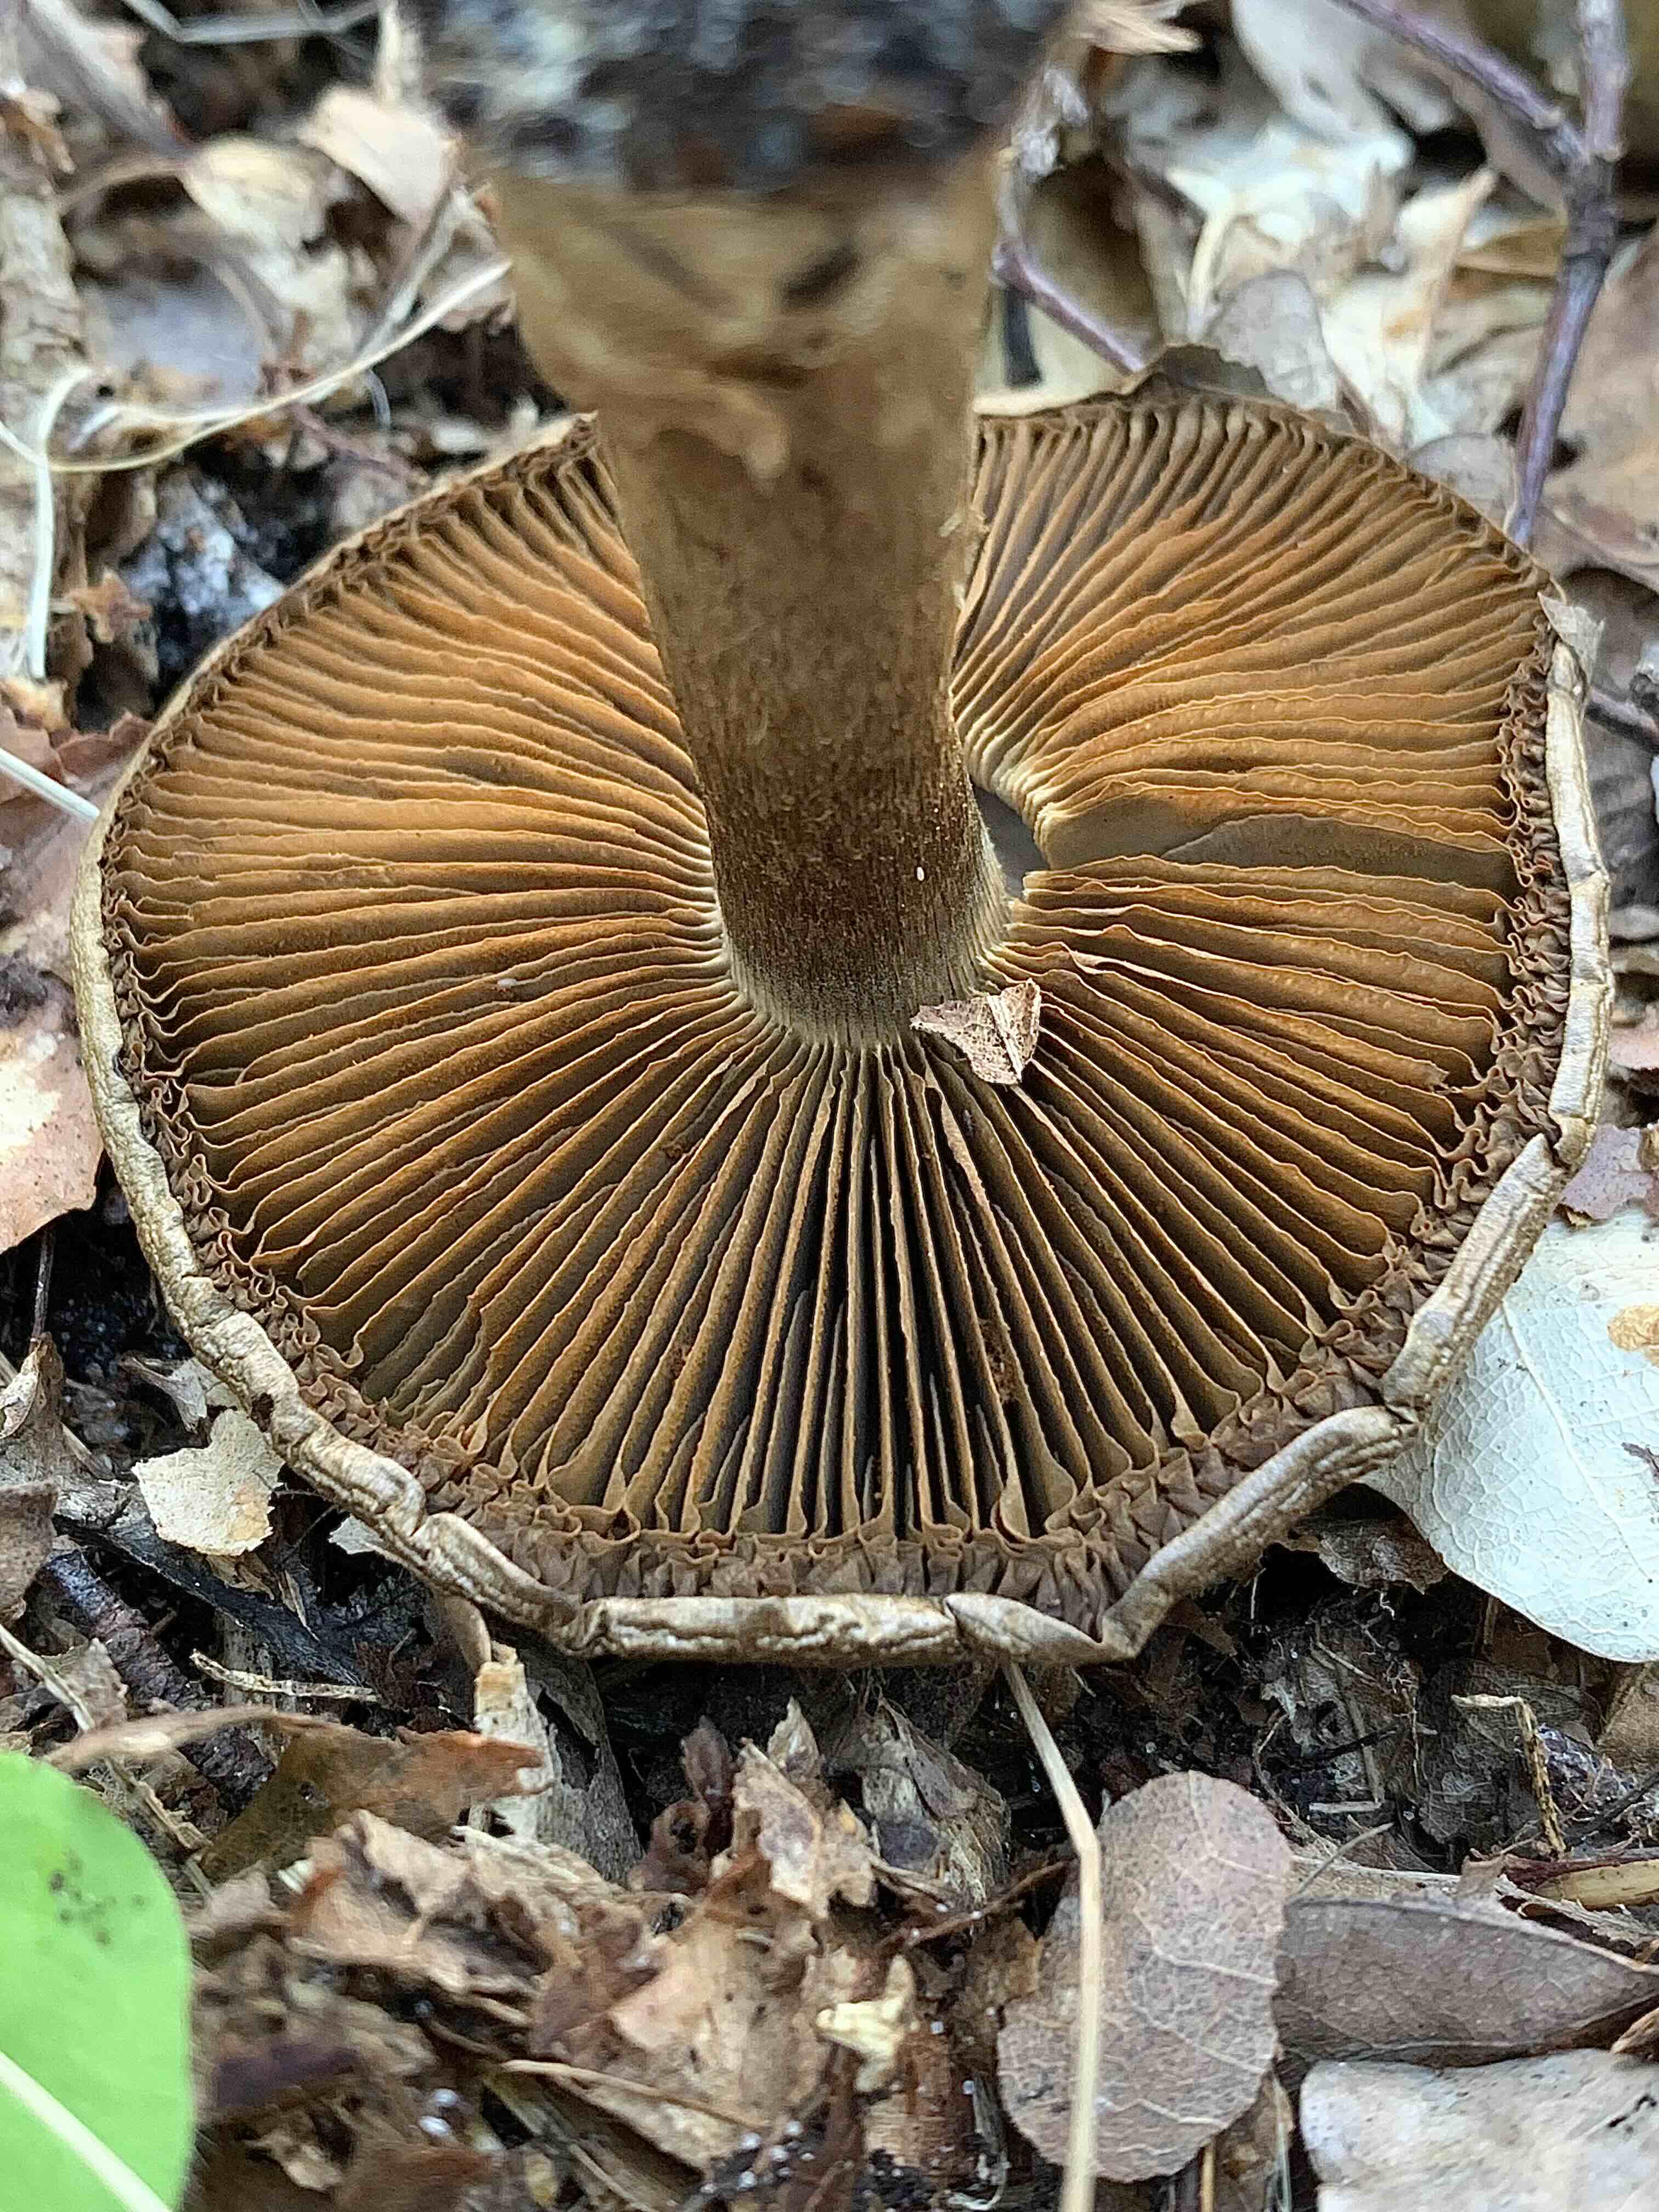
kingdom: Fungi
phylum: Basidiomycota
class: Agaricomycetes
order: Agaricales
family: Cortinariaceae
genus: Cortinarius
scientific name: Cortinarius
